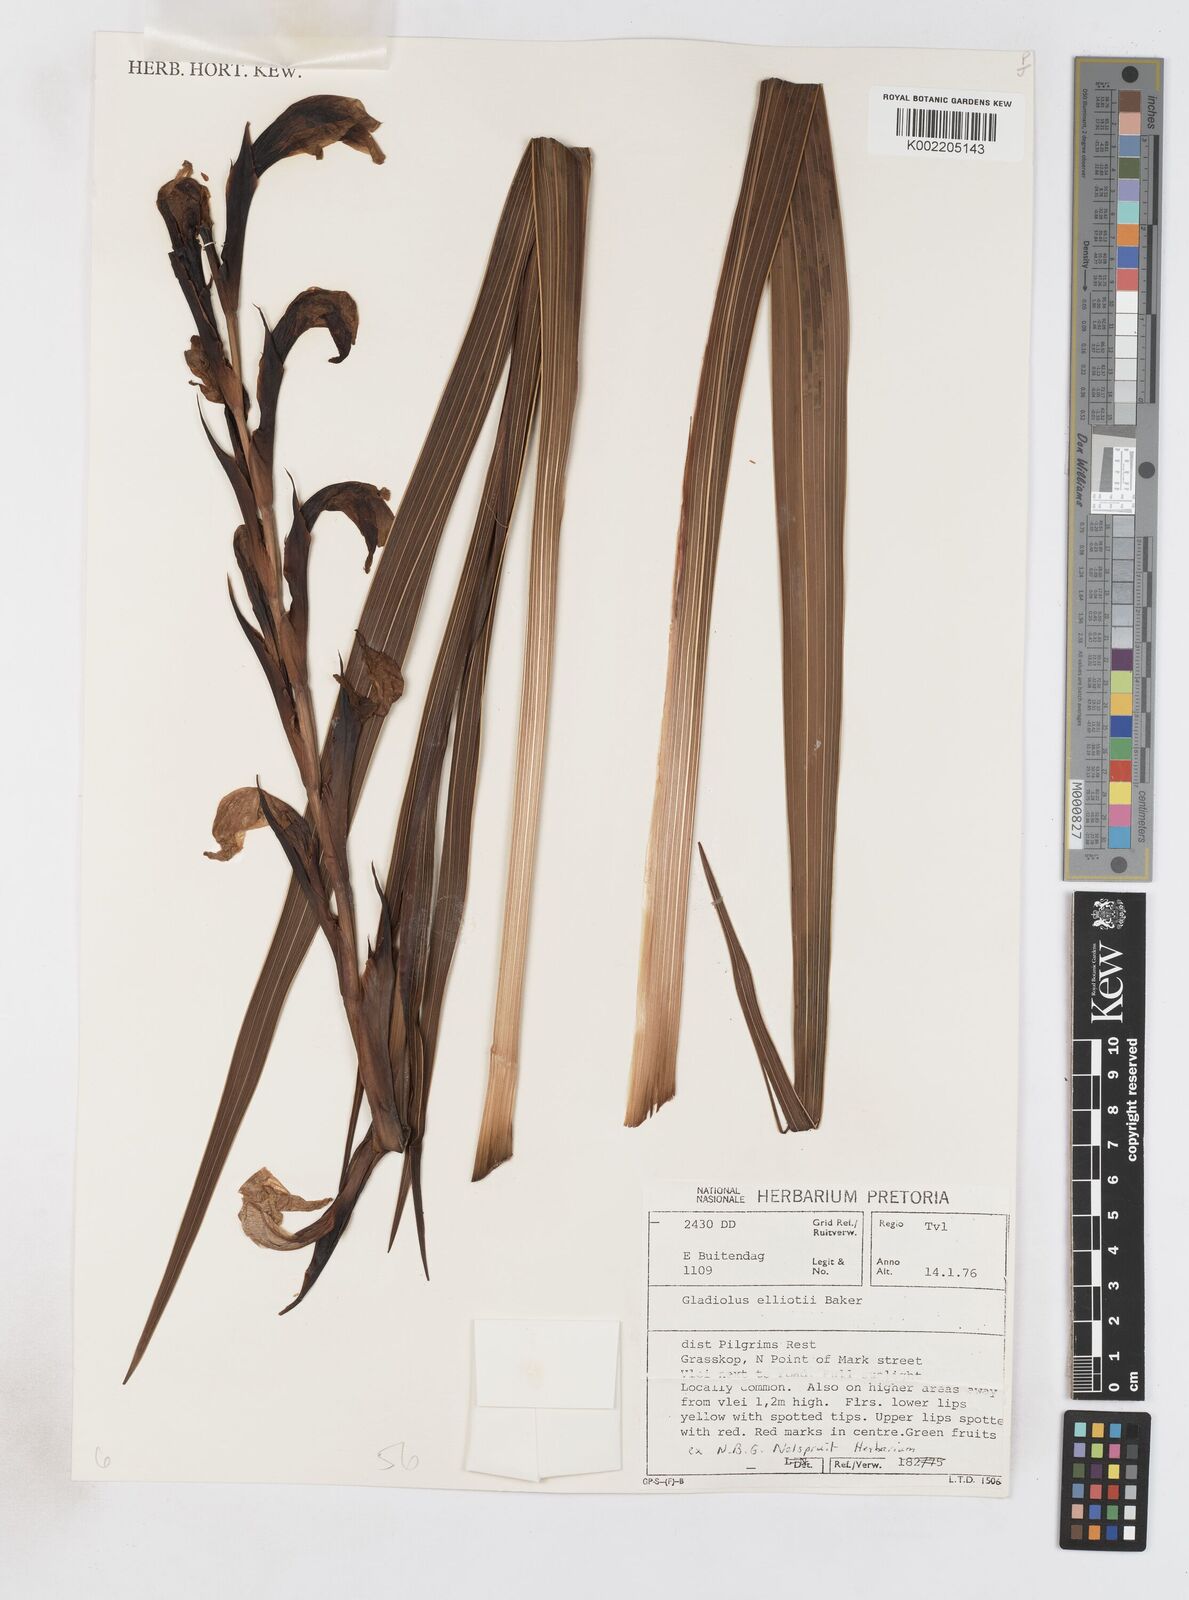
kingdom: Plantae
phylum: Tracheophyta
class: Liliopsida
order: Asparagales
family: Iridaceae
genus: Gladiolus
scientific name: Gladiolus dalenii
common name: Cornflag
